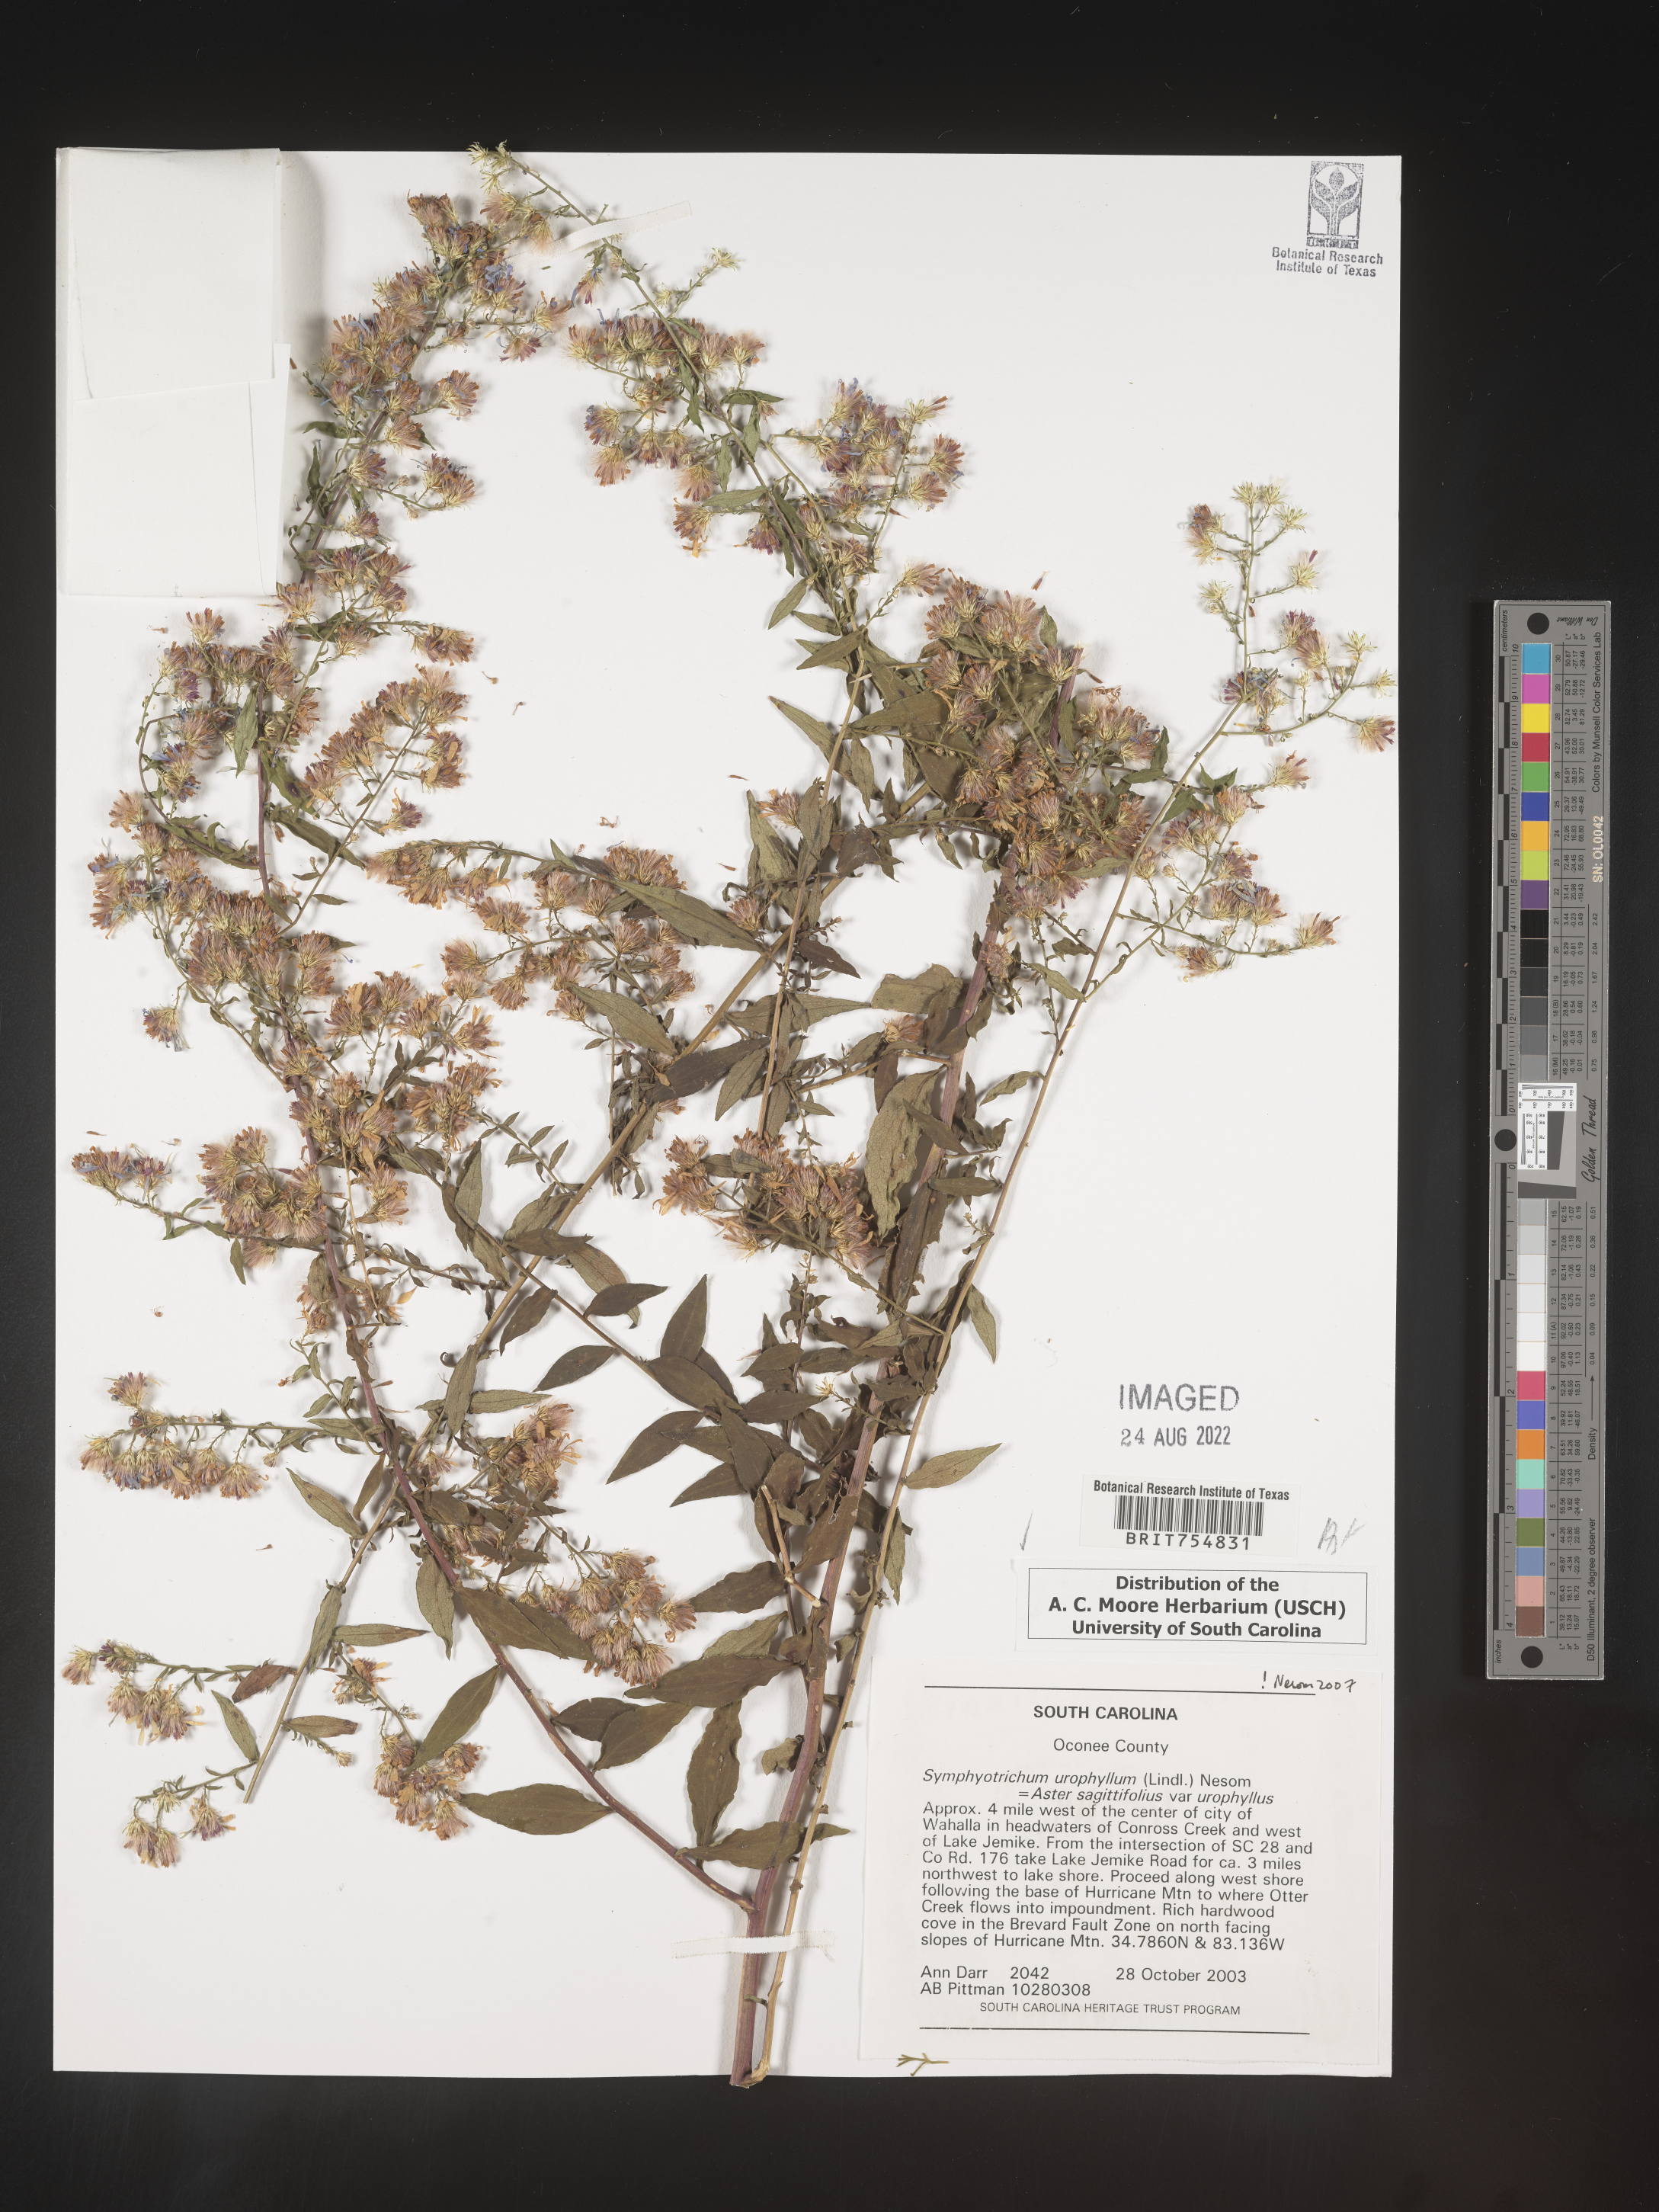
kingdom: Plantae
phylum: Tracheophyta
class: Magnoliopsida
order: Asterales
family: Asteraceae
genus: Symphyotrichum
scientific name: Symphyotrichum urophyllum
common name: Arrow-leaved aster
